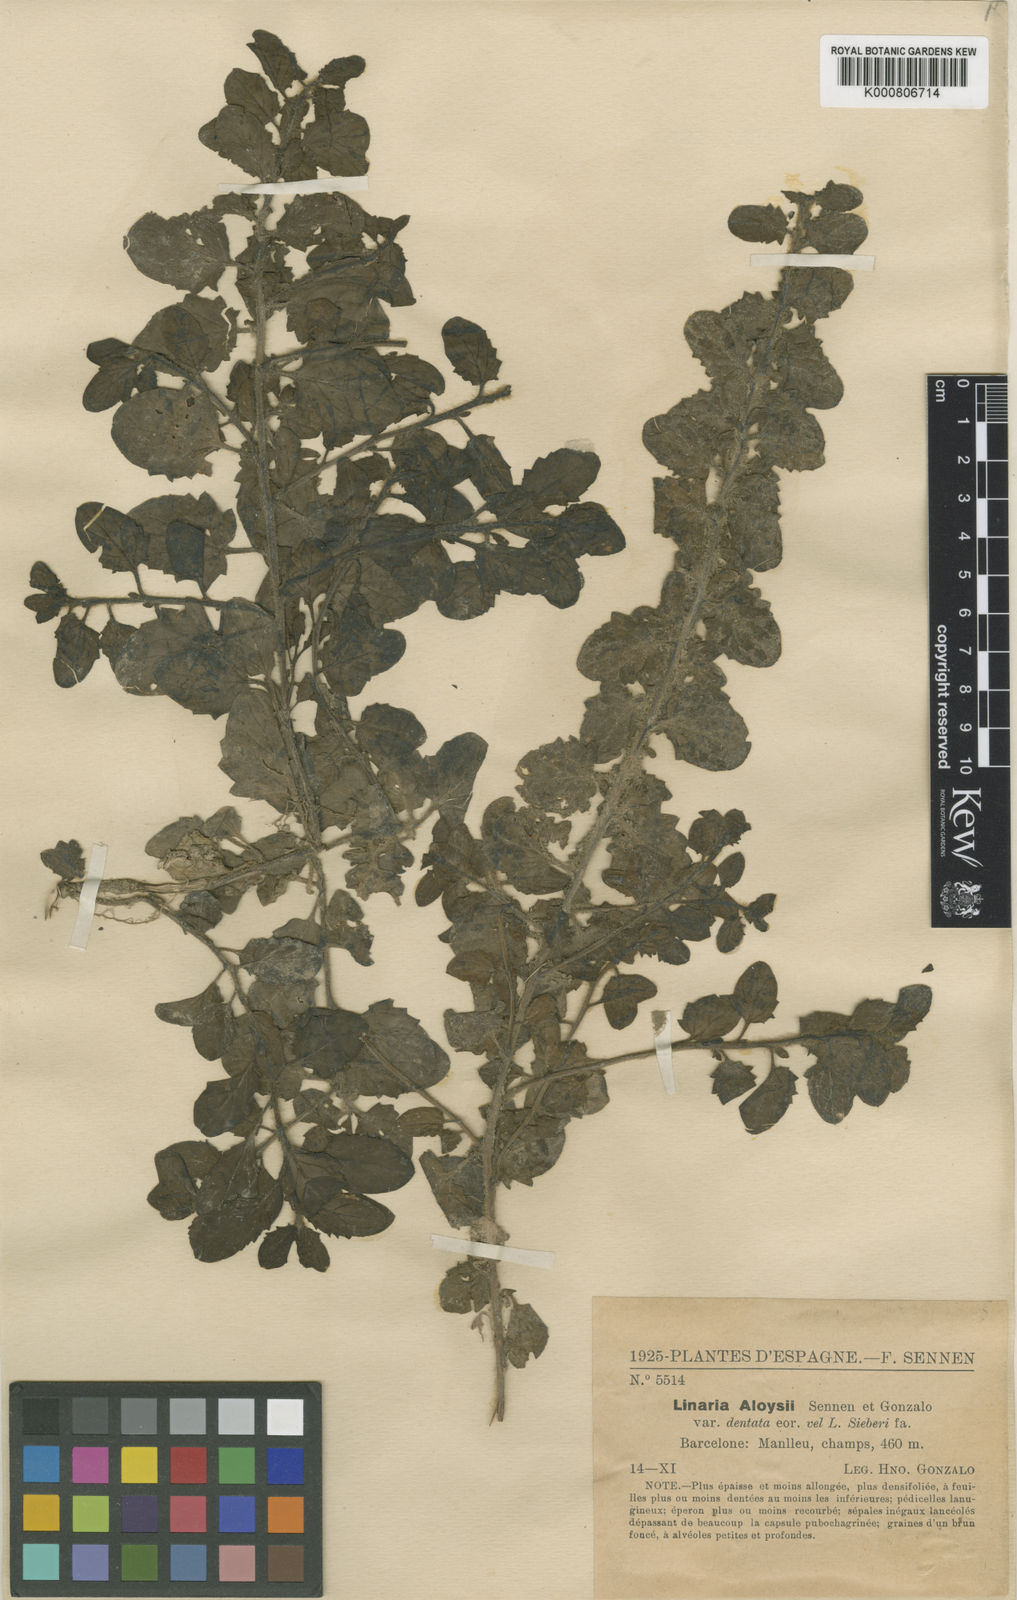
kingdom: Plantae
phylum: Tracheophyta
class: Magnoliopsida
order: Lamiales
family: Plantaginaceae
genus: Kickxia
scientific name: Kickxia elatine
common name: Sharp-leaved fluellen
